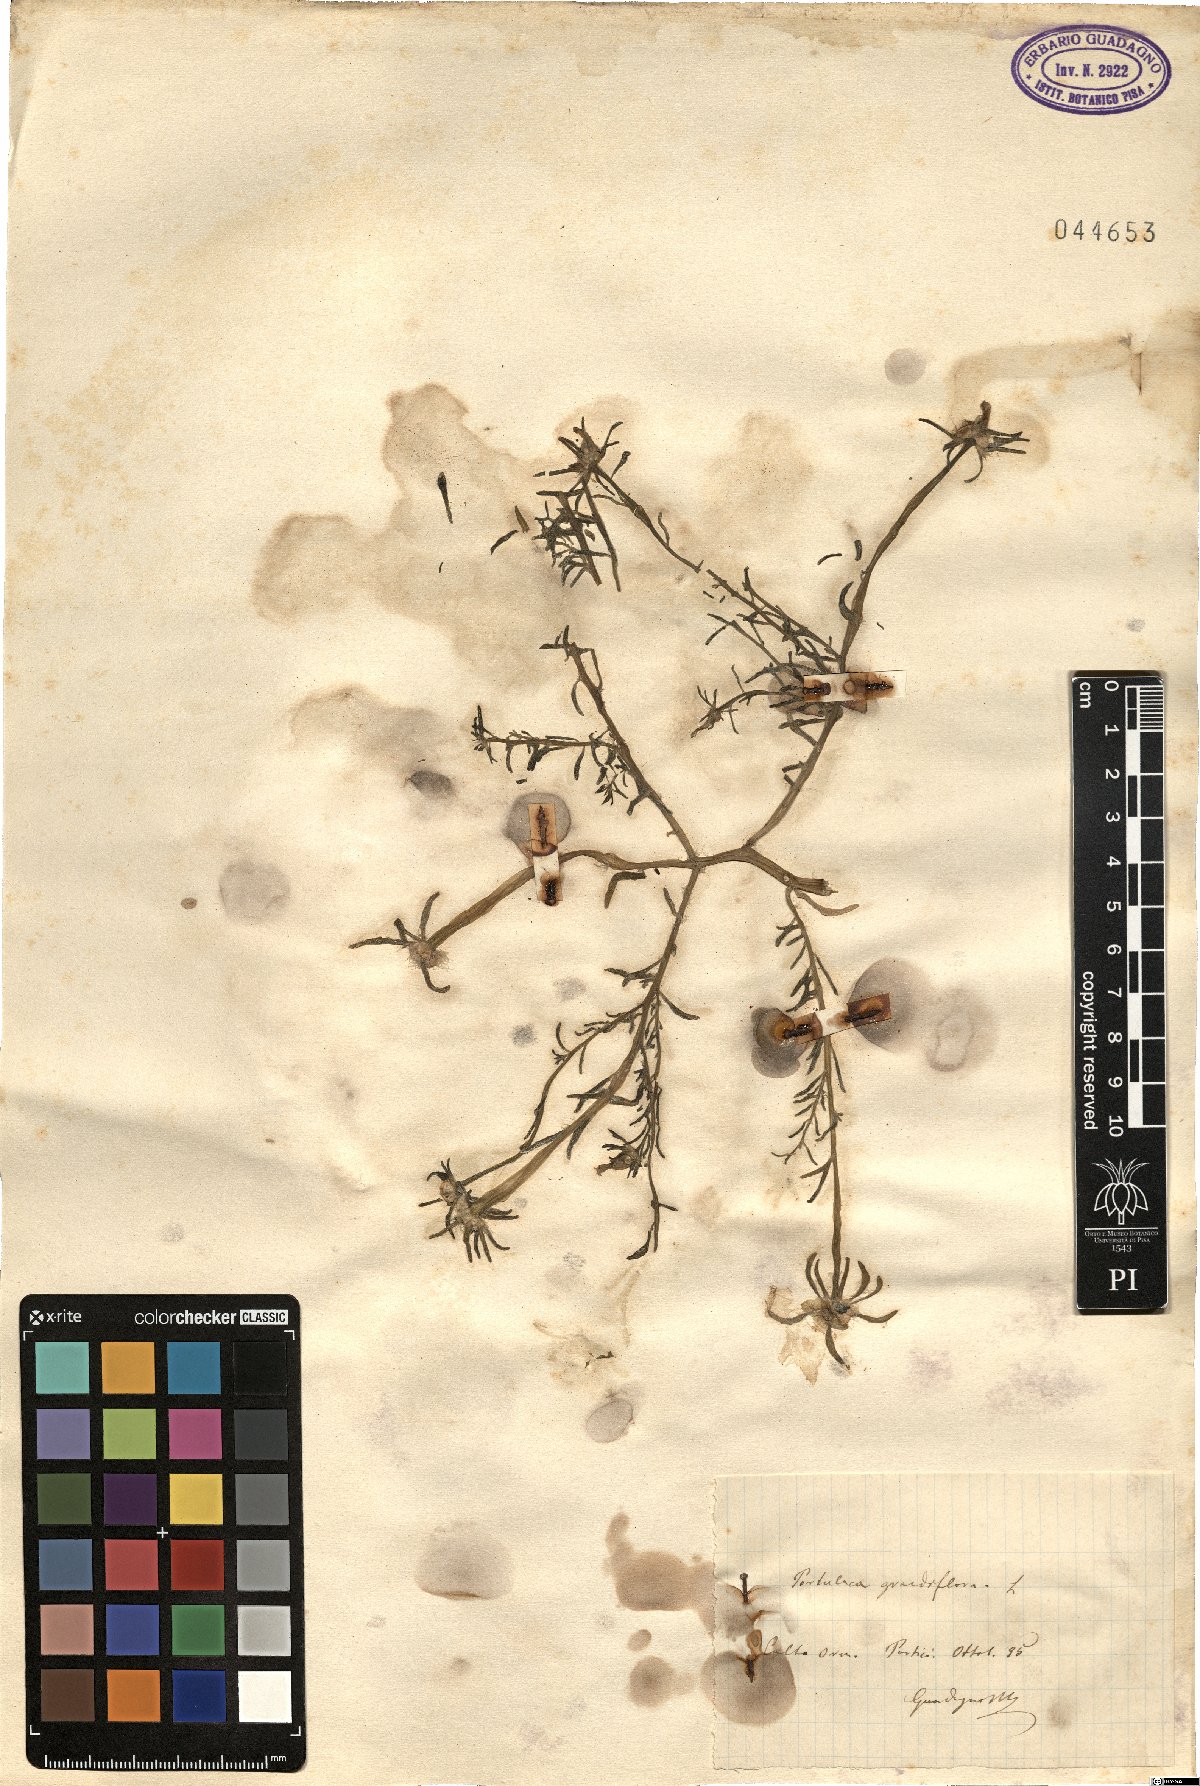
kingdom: Plantae
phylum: Tracheophyta
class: Magnoliopsida
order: Caryophyllales
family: Portulacaceae
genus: Portulaca
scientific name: Portulaca grandiflora
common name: Moss-rose
